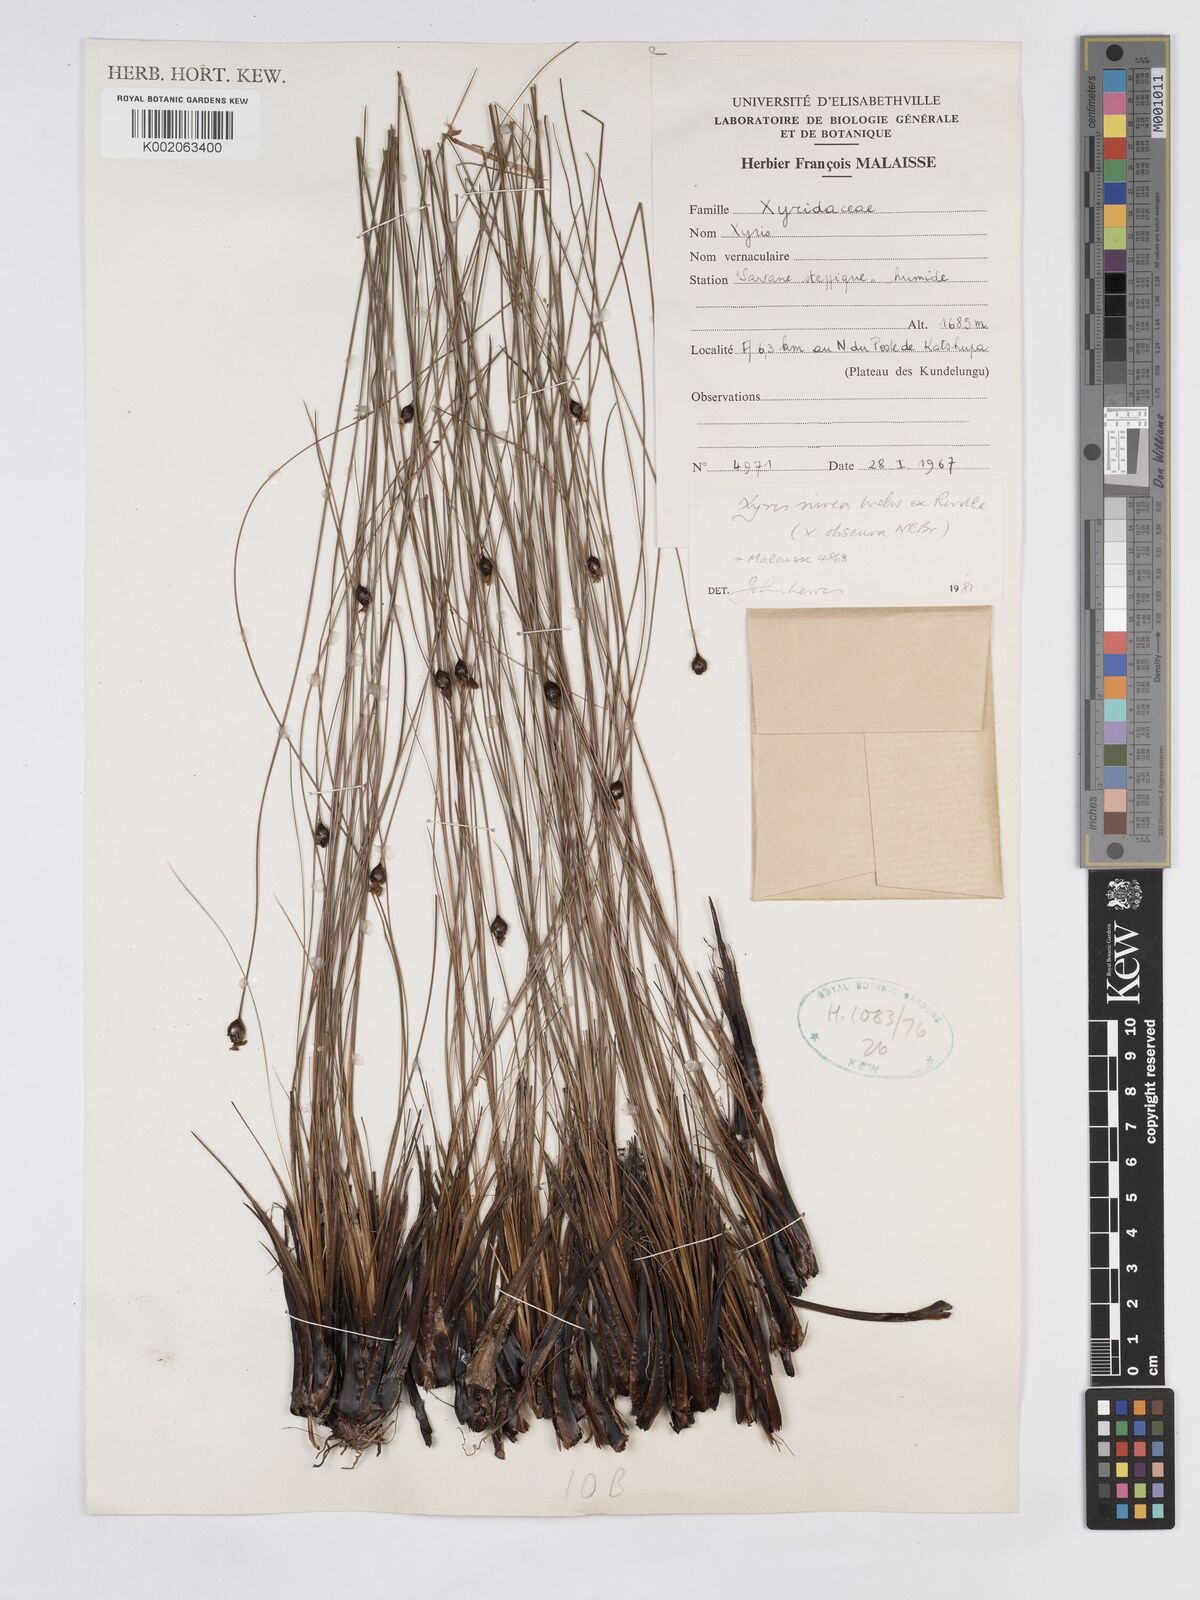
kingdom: Plantae
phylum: Tracheophyta
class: Liliopsida
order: Poales
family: Xyridaceae
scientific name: Xyridaceae
